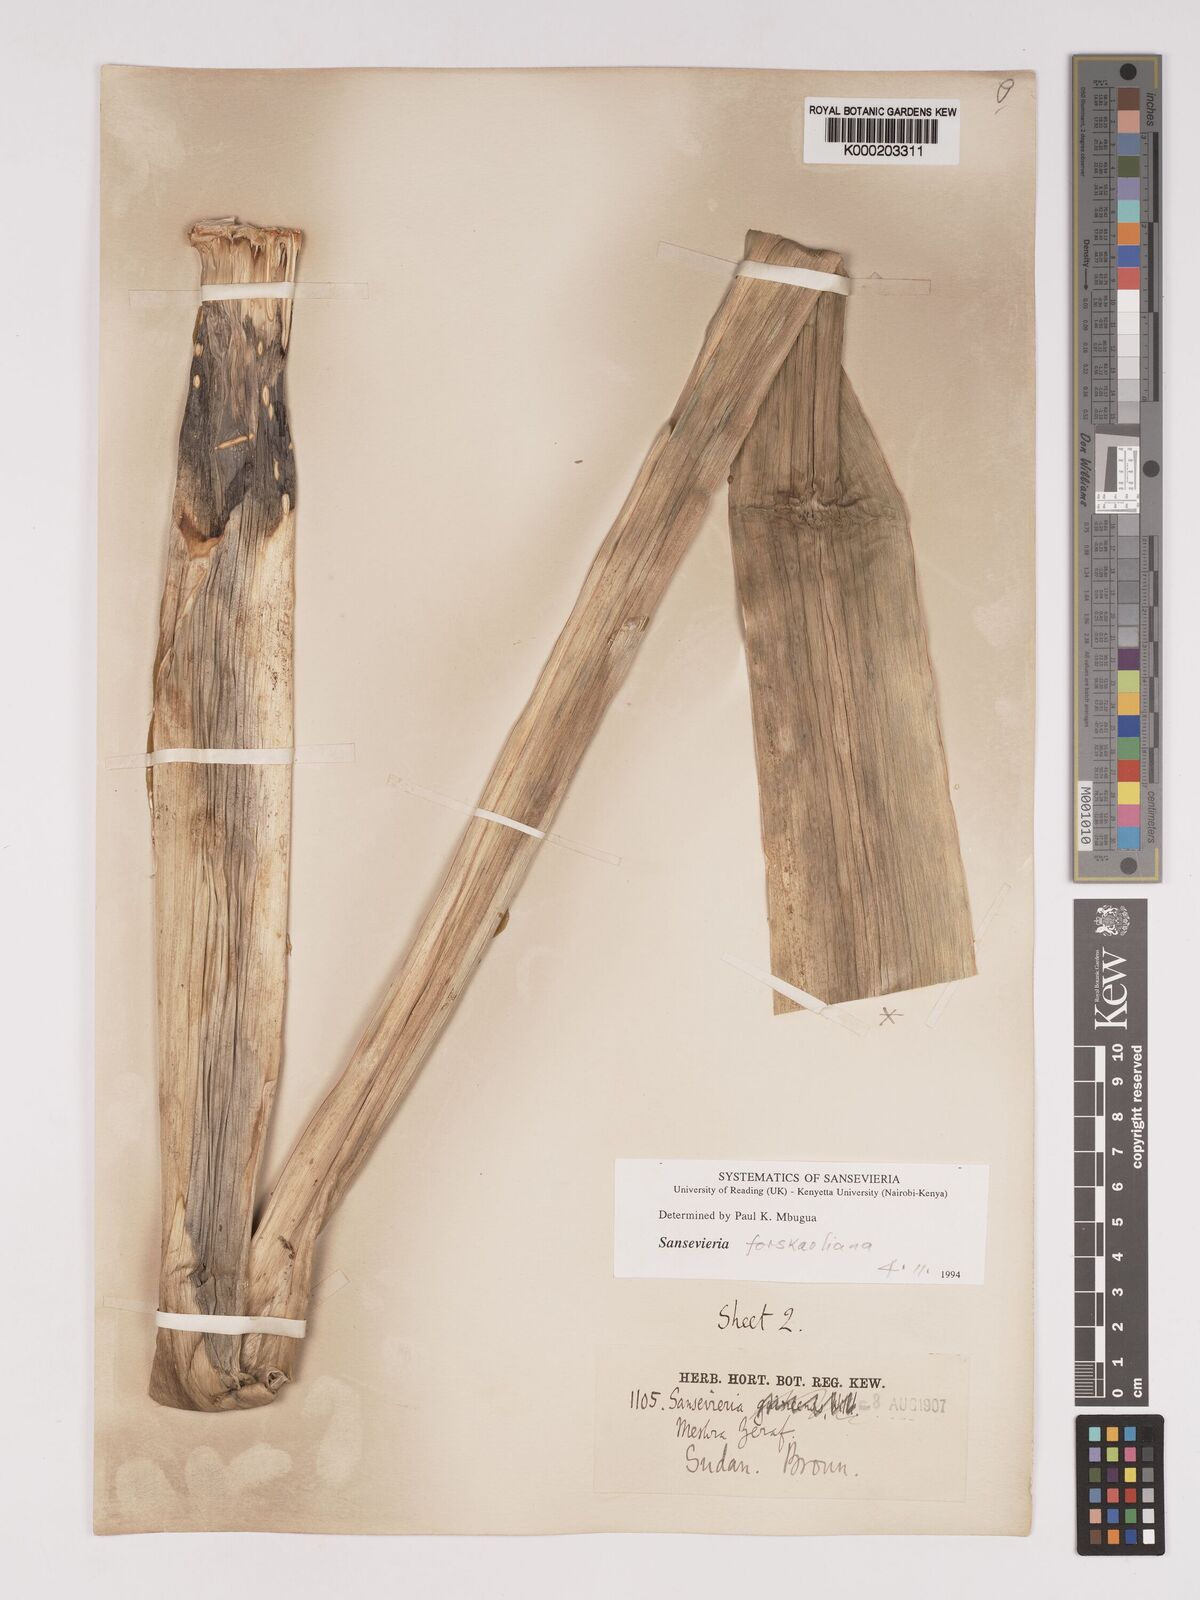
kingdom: Plantae
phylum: Tracheophyta
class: Liliopsida
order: Asparagales
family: Asparagaceae
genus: Dracaena
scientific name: Dracaena
